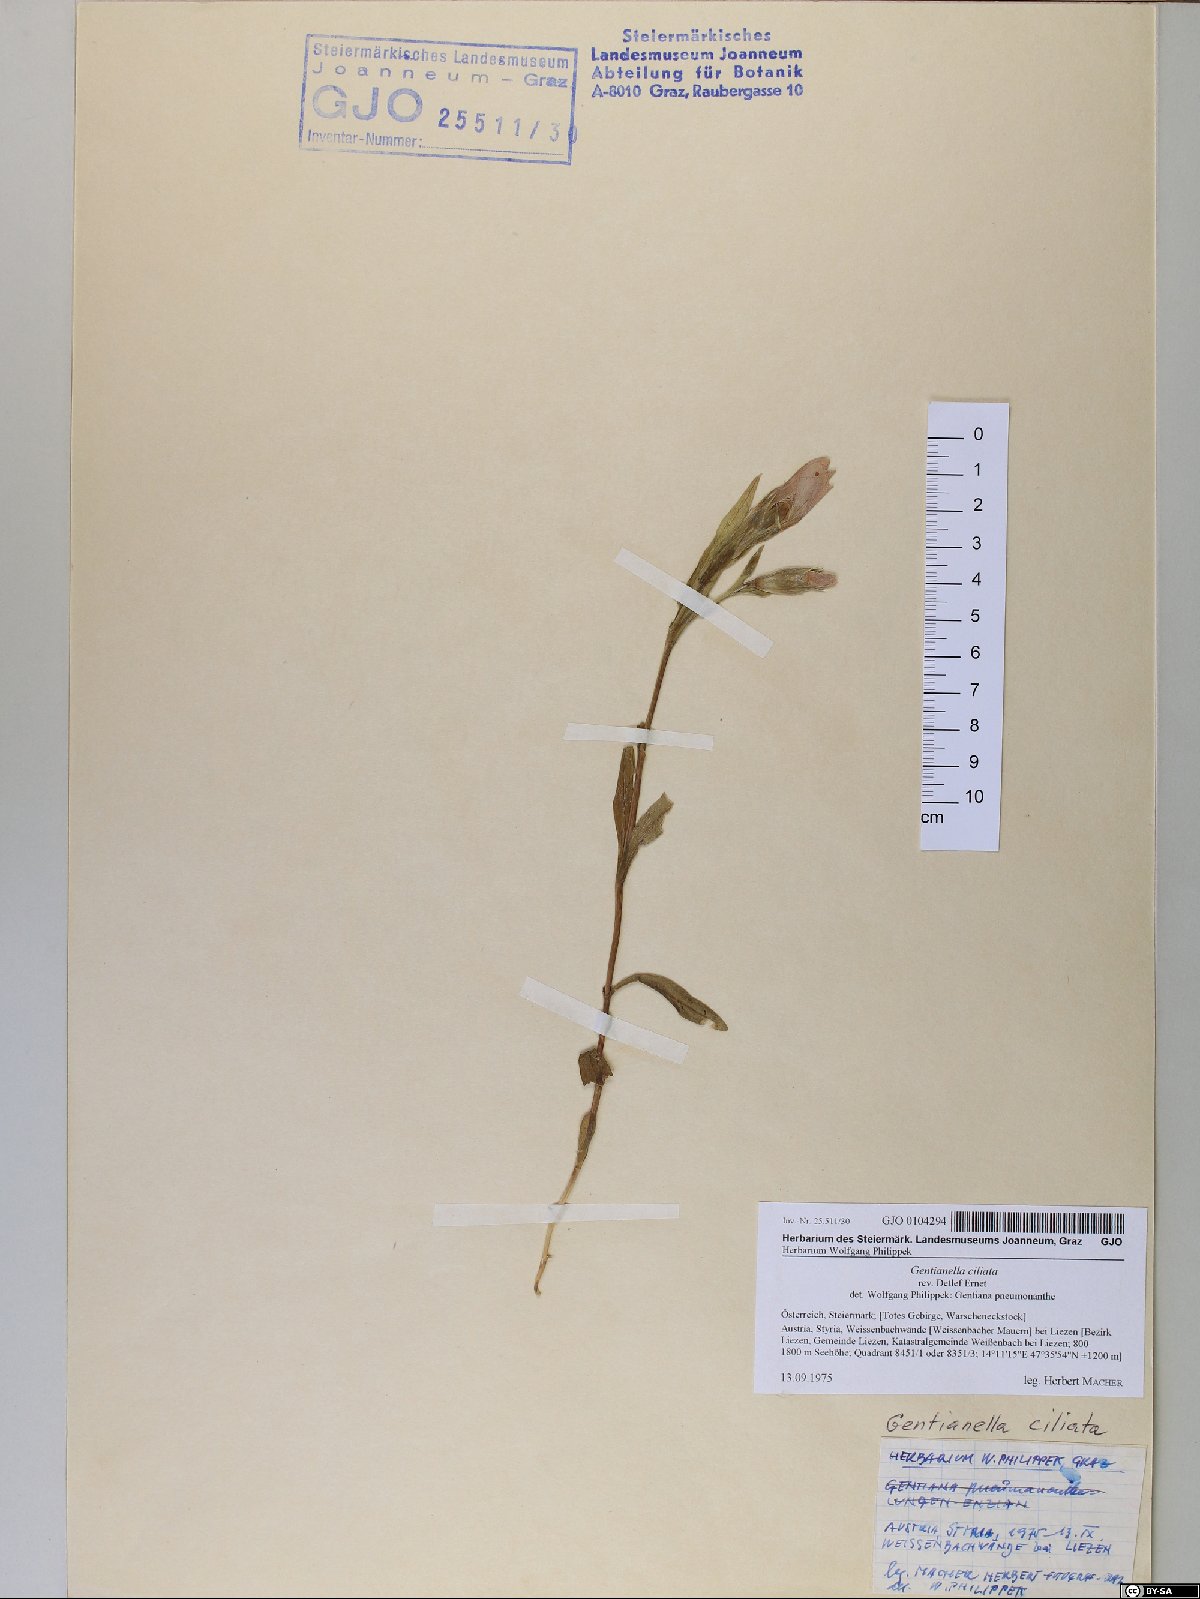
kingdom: Plantae
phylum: Tracheophyta
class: Magnoliopsida
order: Gentianales
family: Gentianaceae
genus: Gentianopsis
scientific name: Gentianopsis ciliata
